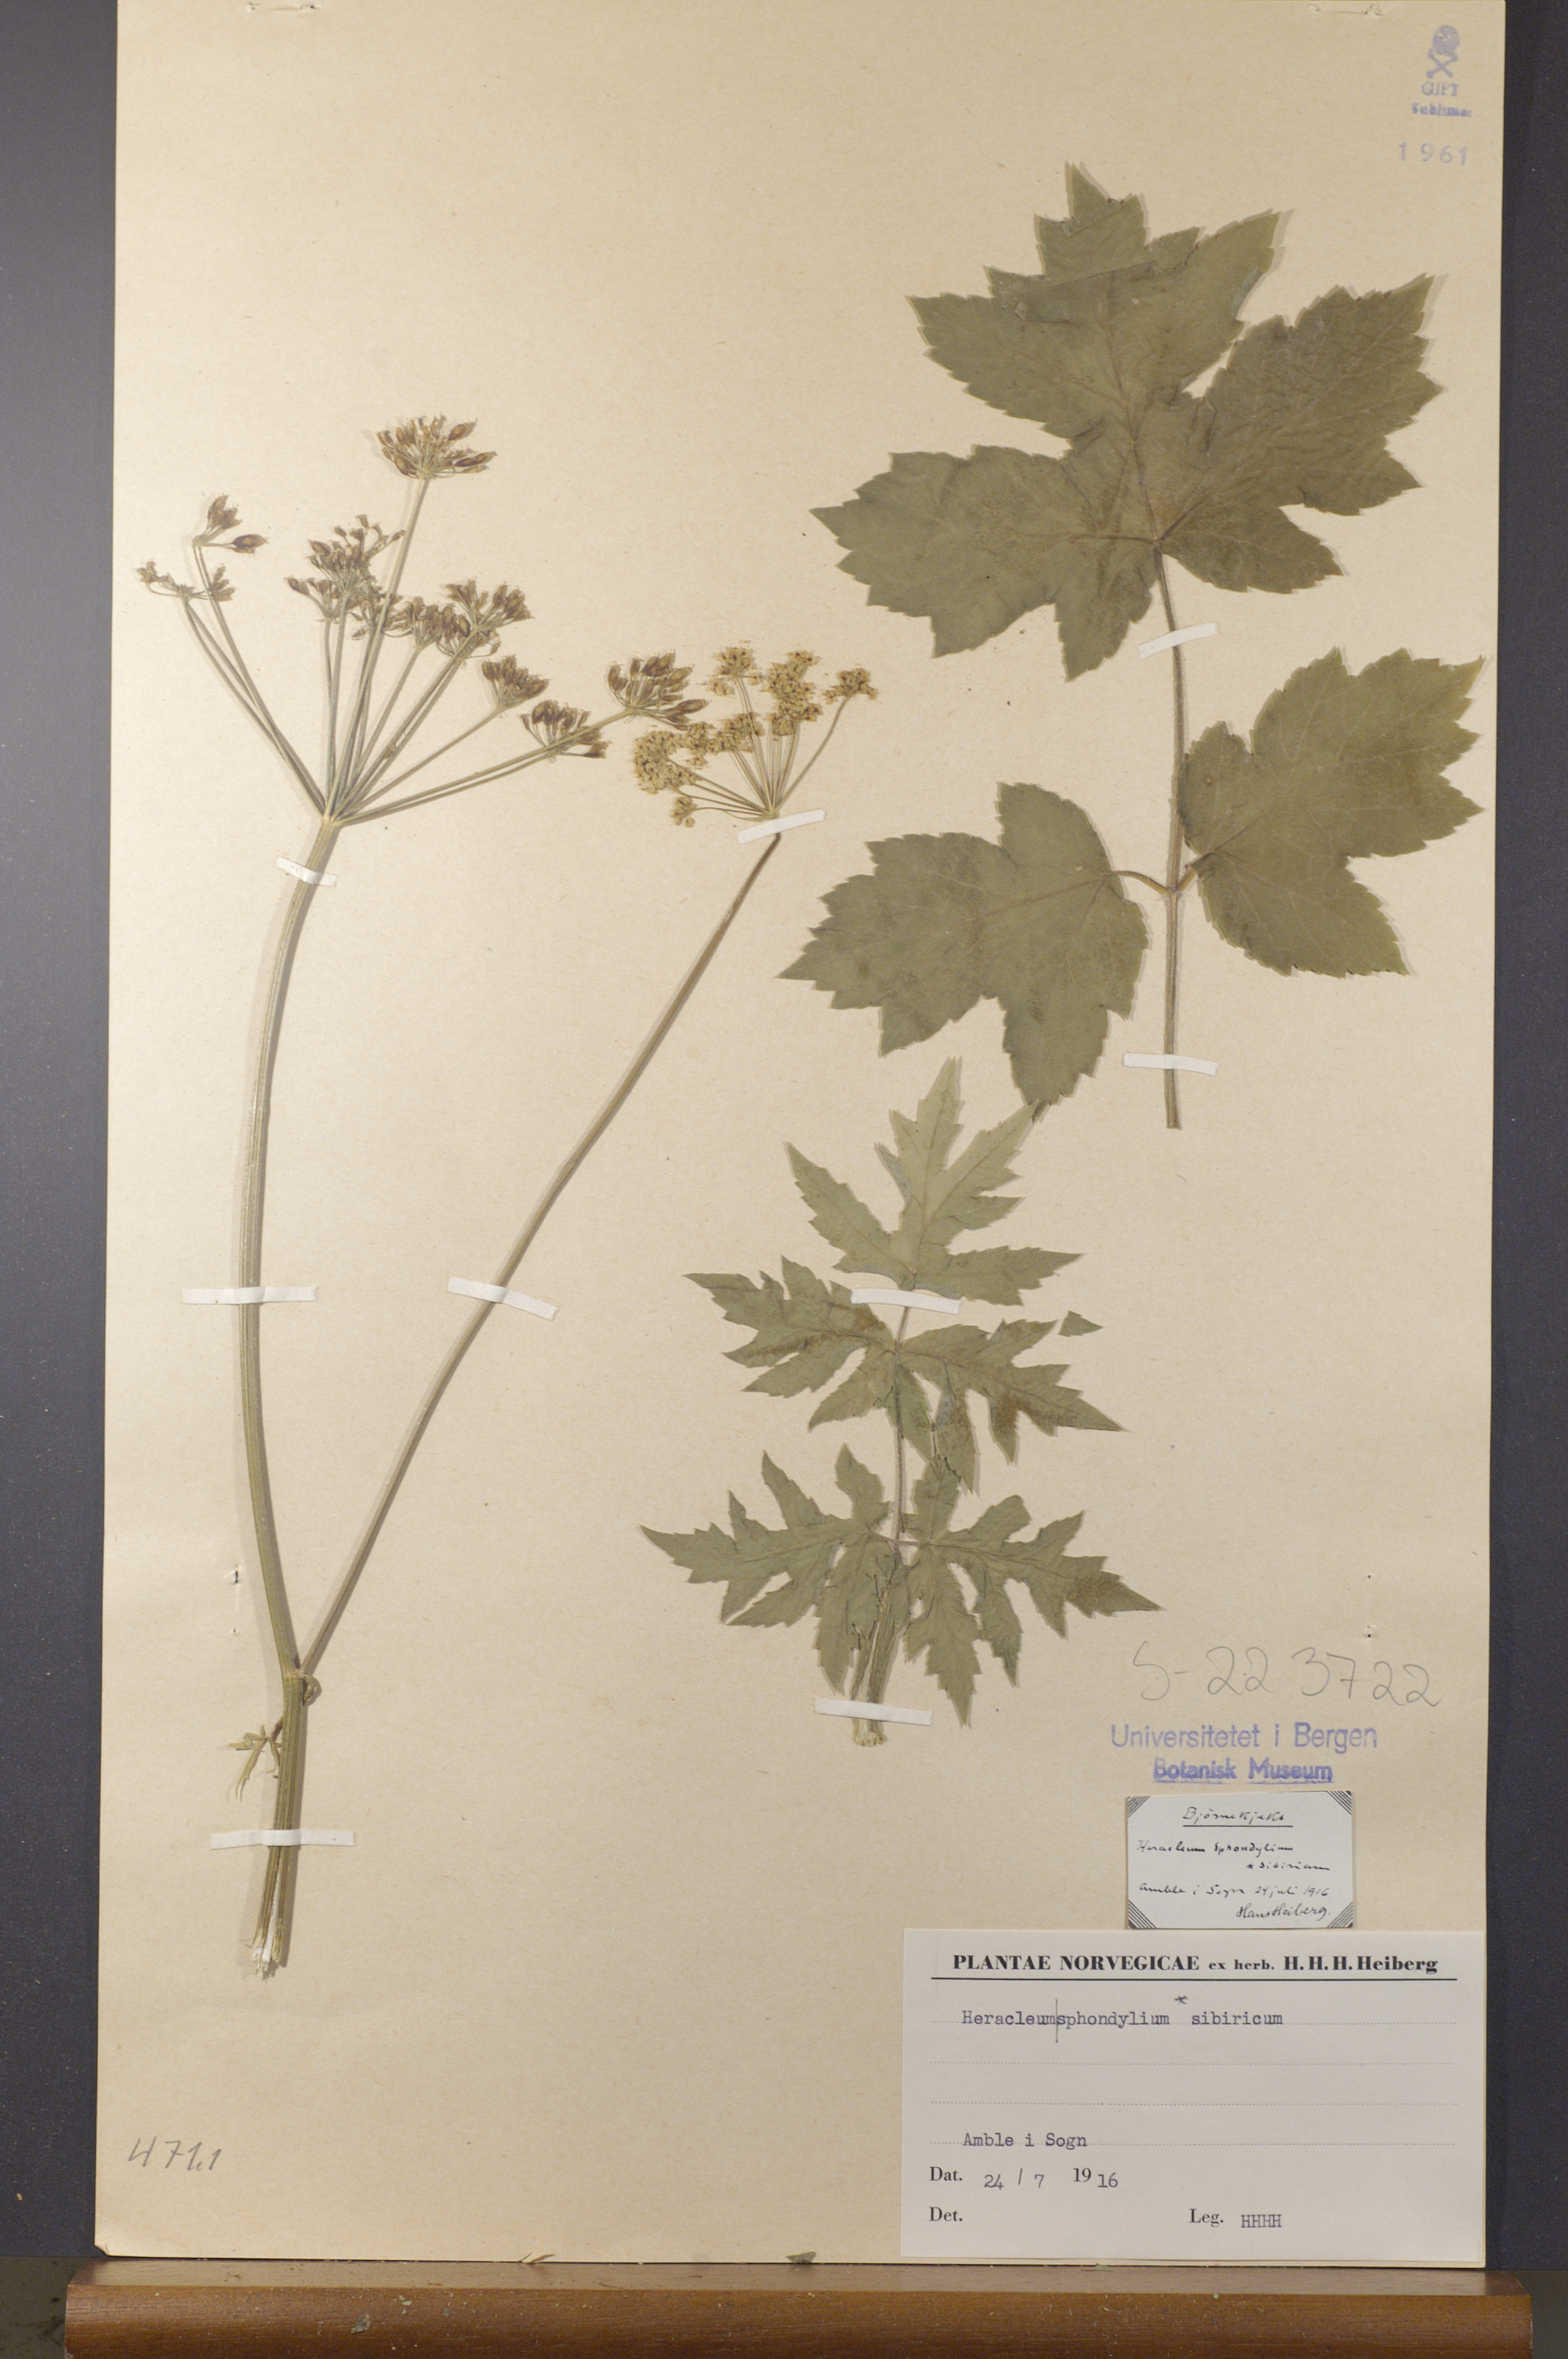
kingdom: Plantae
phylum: Tracheophyta
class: Magnoliopsida
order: Apiales
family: Apiaceae
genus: Heracleum
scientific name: Heracleum sphondylium
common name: Hogweed
